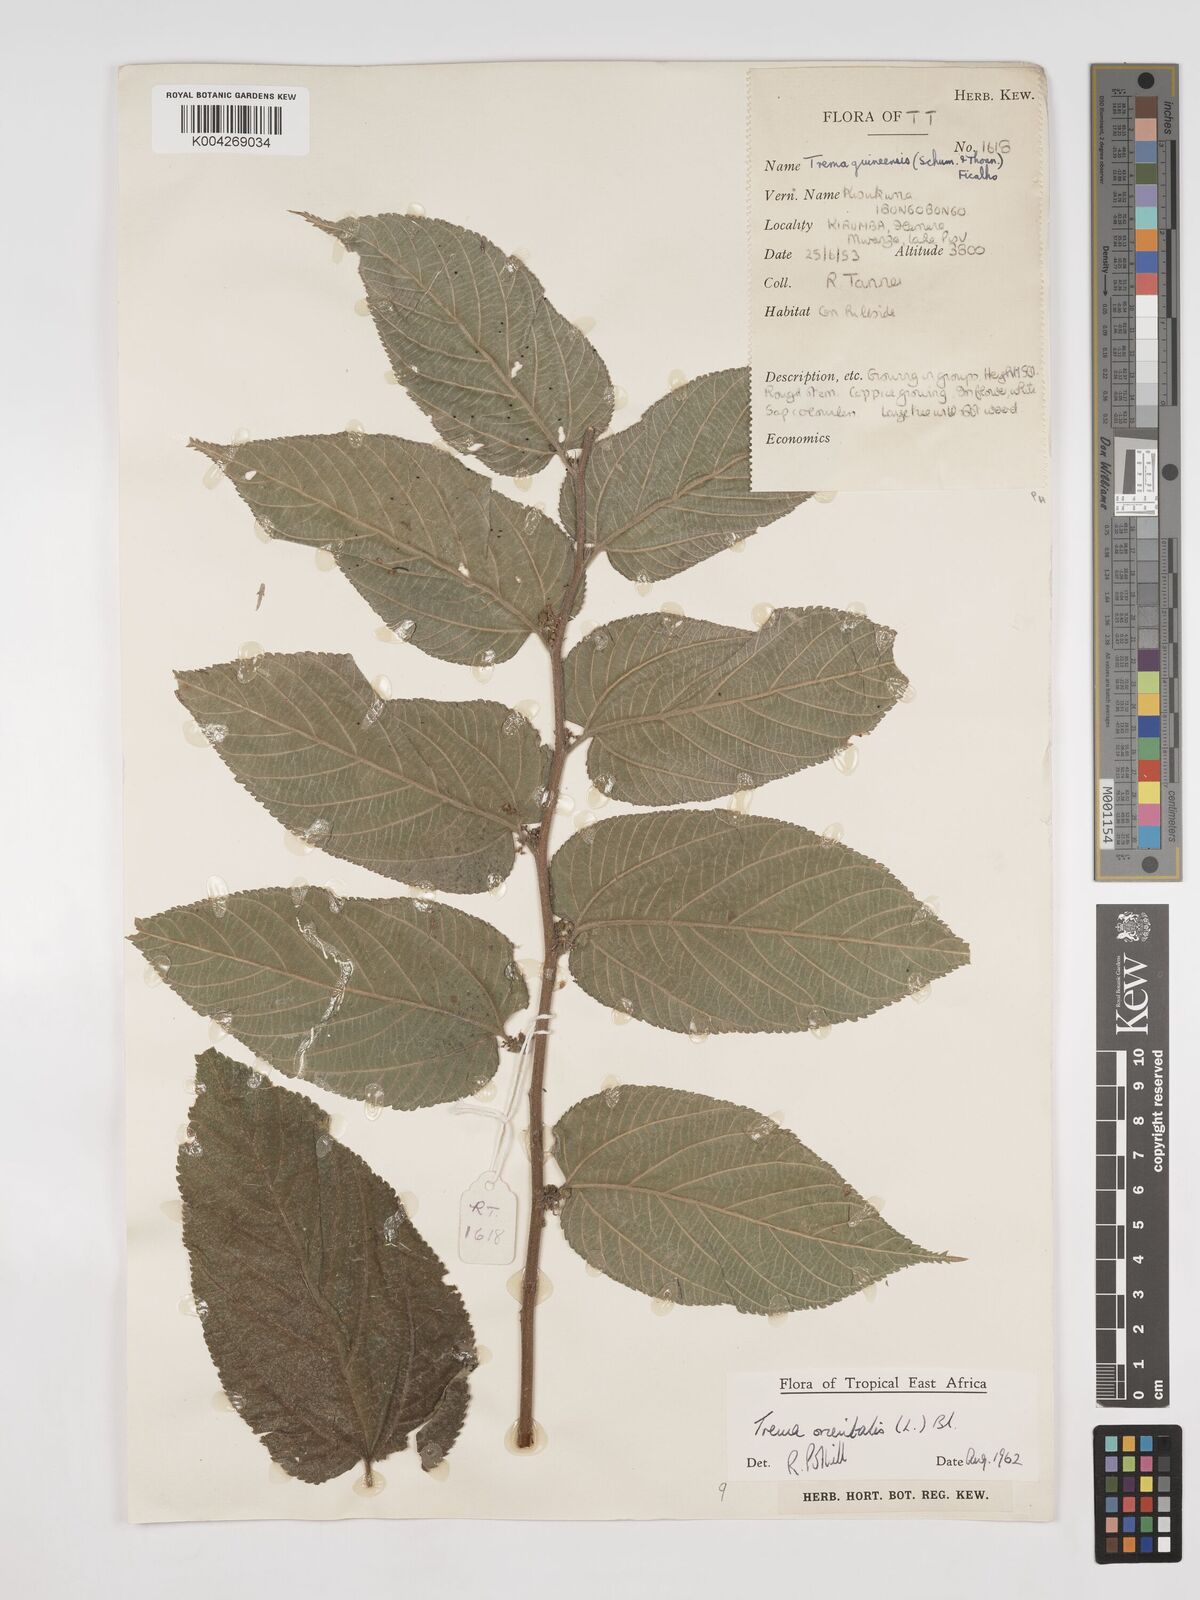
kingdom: Plantae
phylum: Tracheophyta
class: Magnoliopsida
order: Rosales
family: Cannabaceae
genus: Trema
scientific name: Trema orientale
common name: Indian charcoal tree
